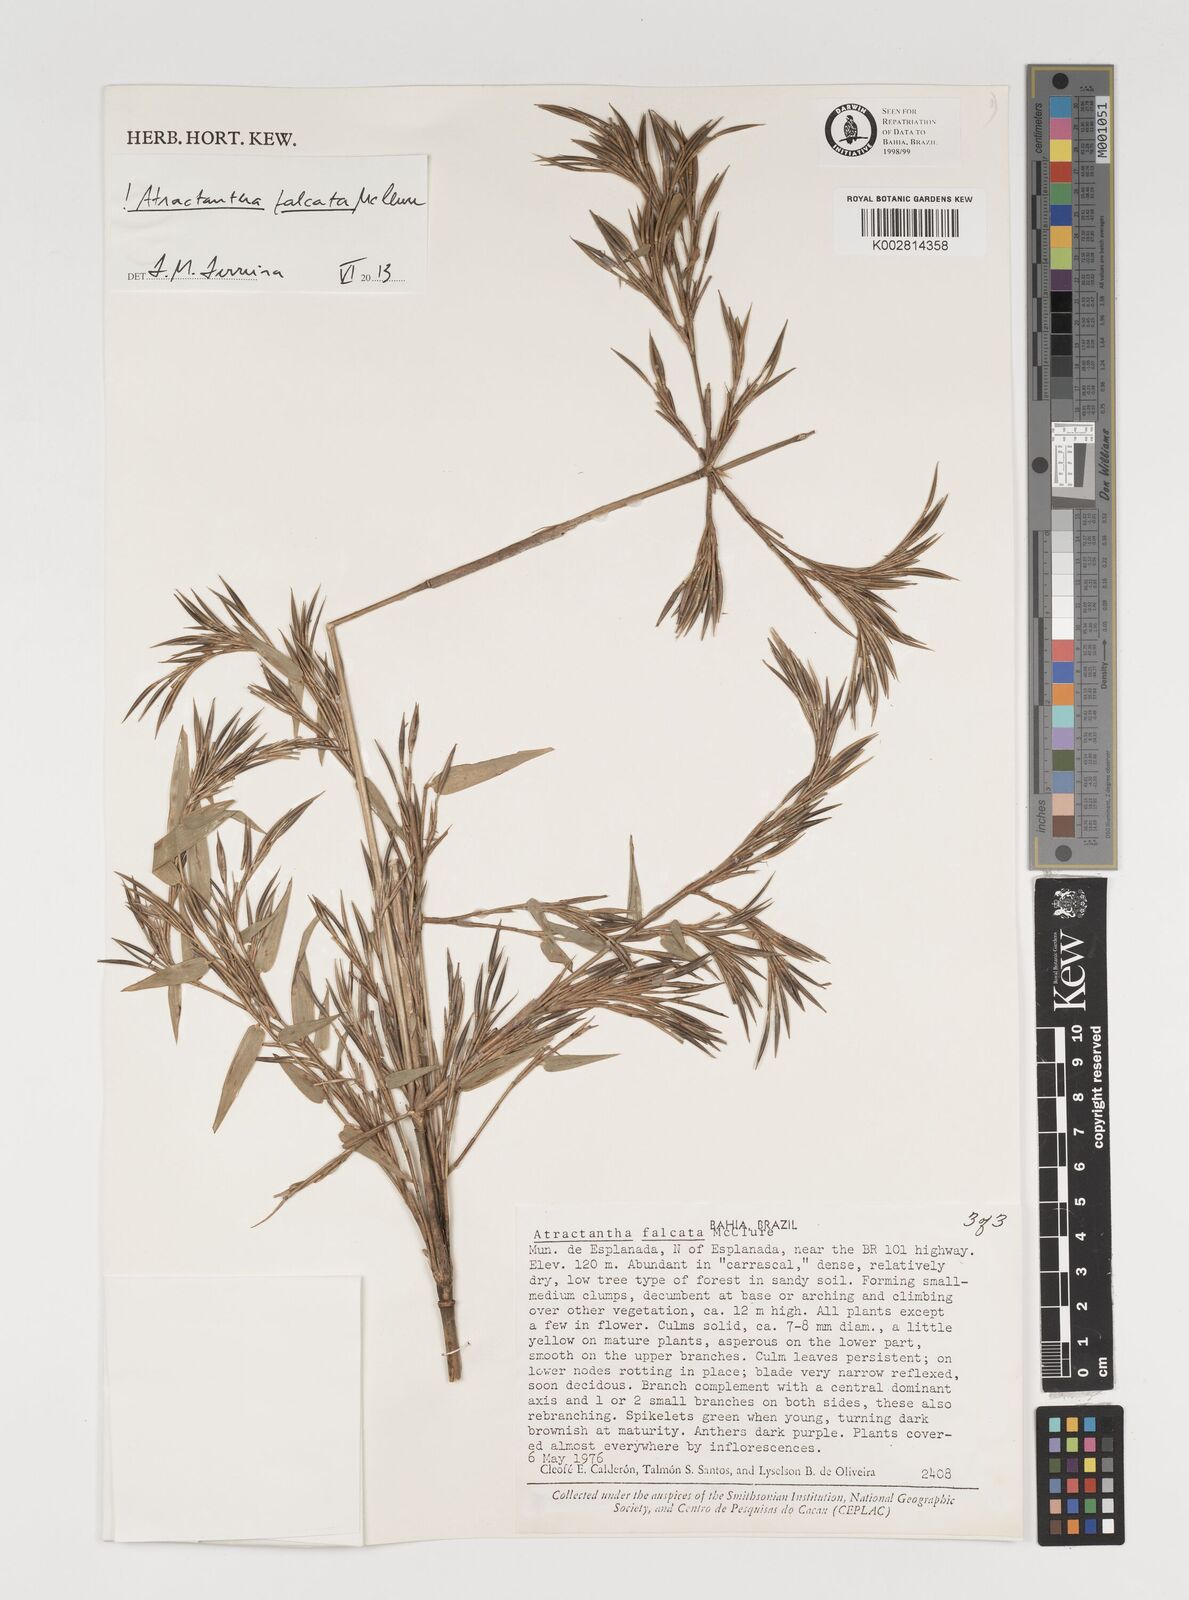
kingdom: Plantae
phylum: Tracheophyta
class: Liliopsida
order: Poales
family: Poaceae
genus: Atractantha
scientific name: Atractantha falcata
